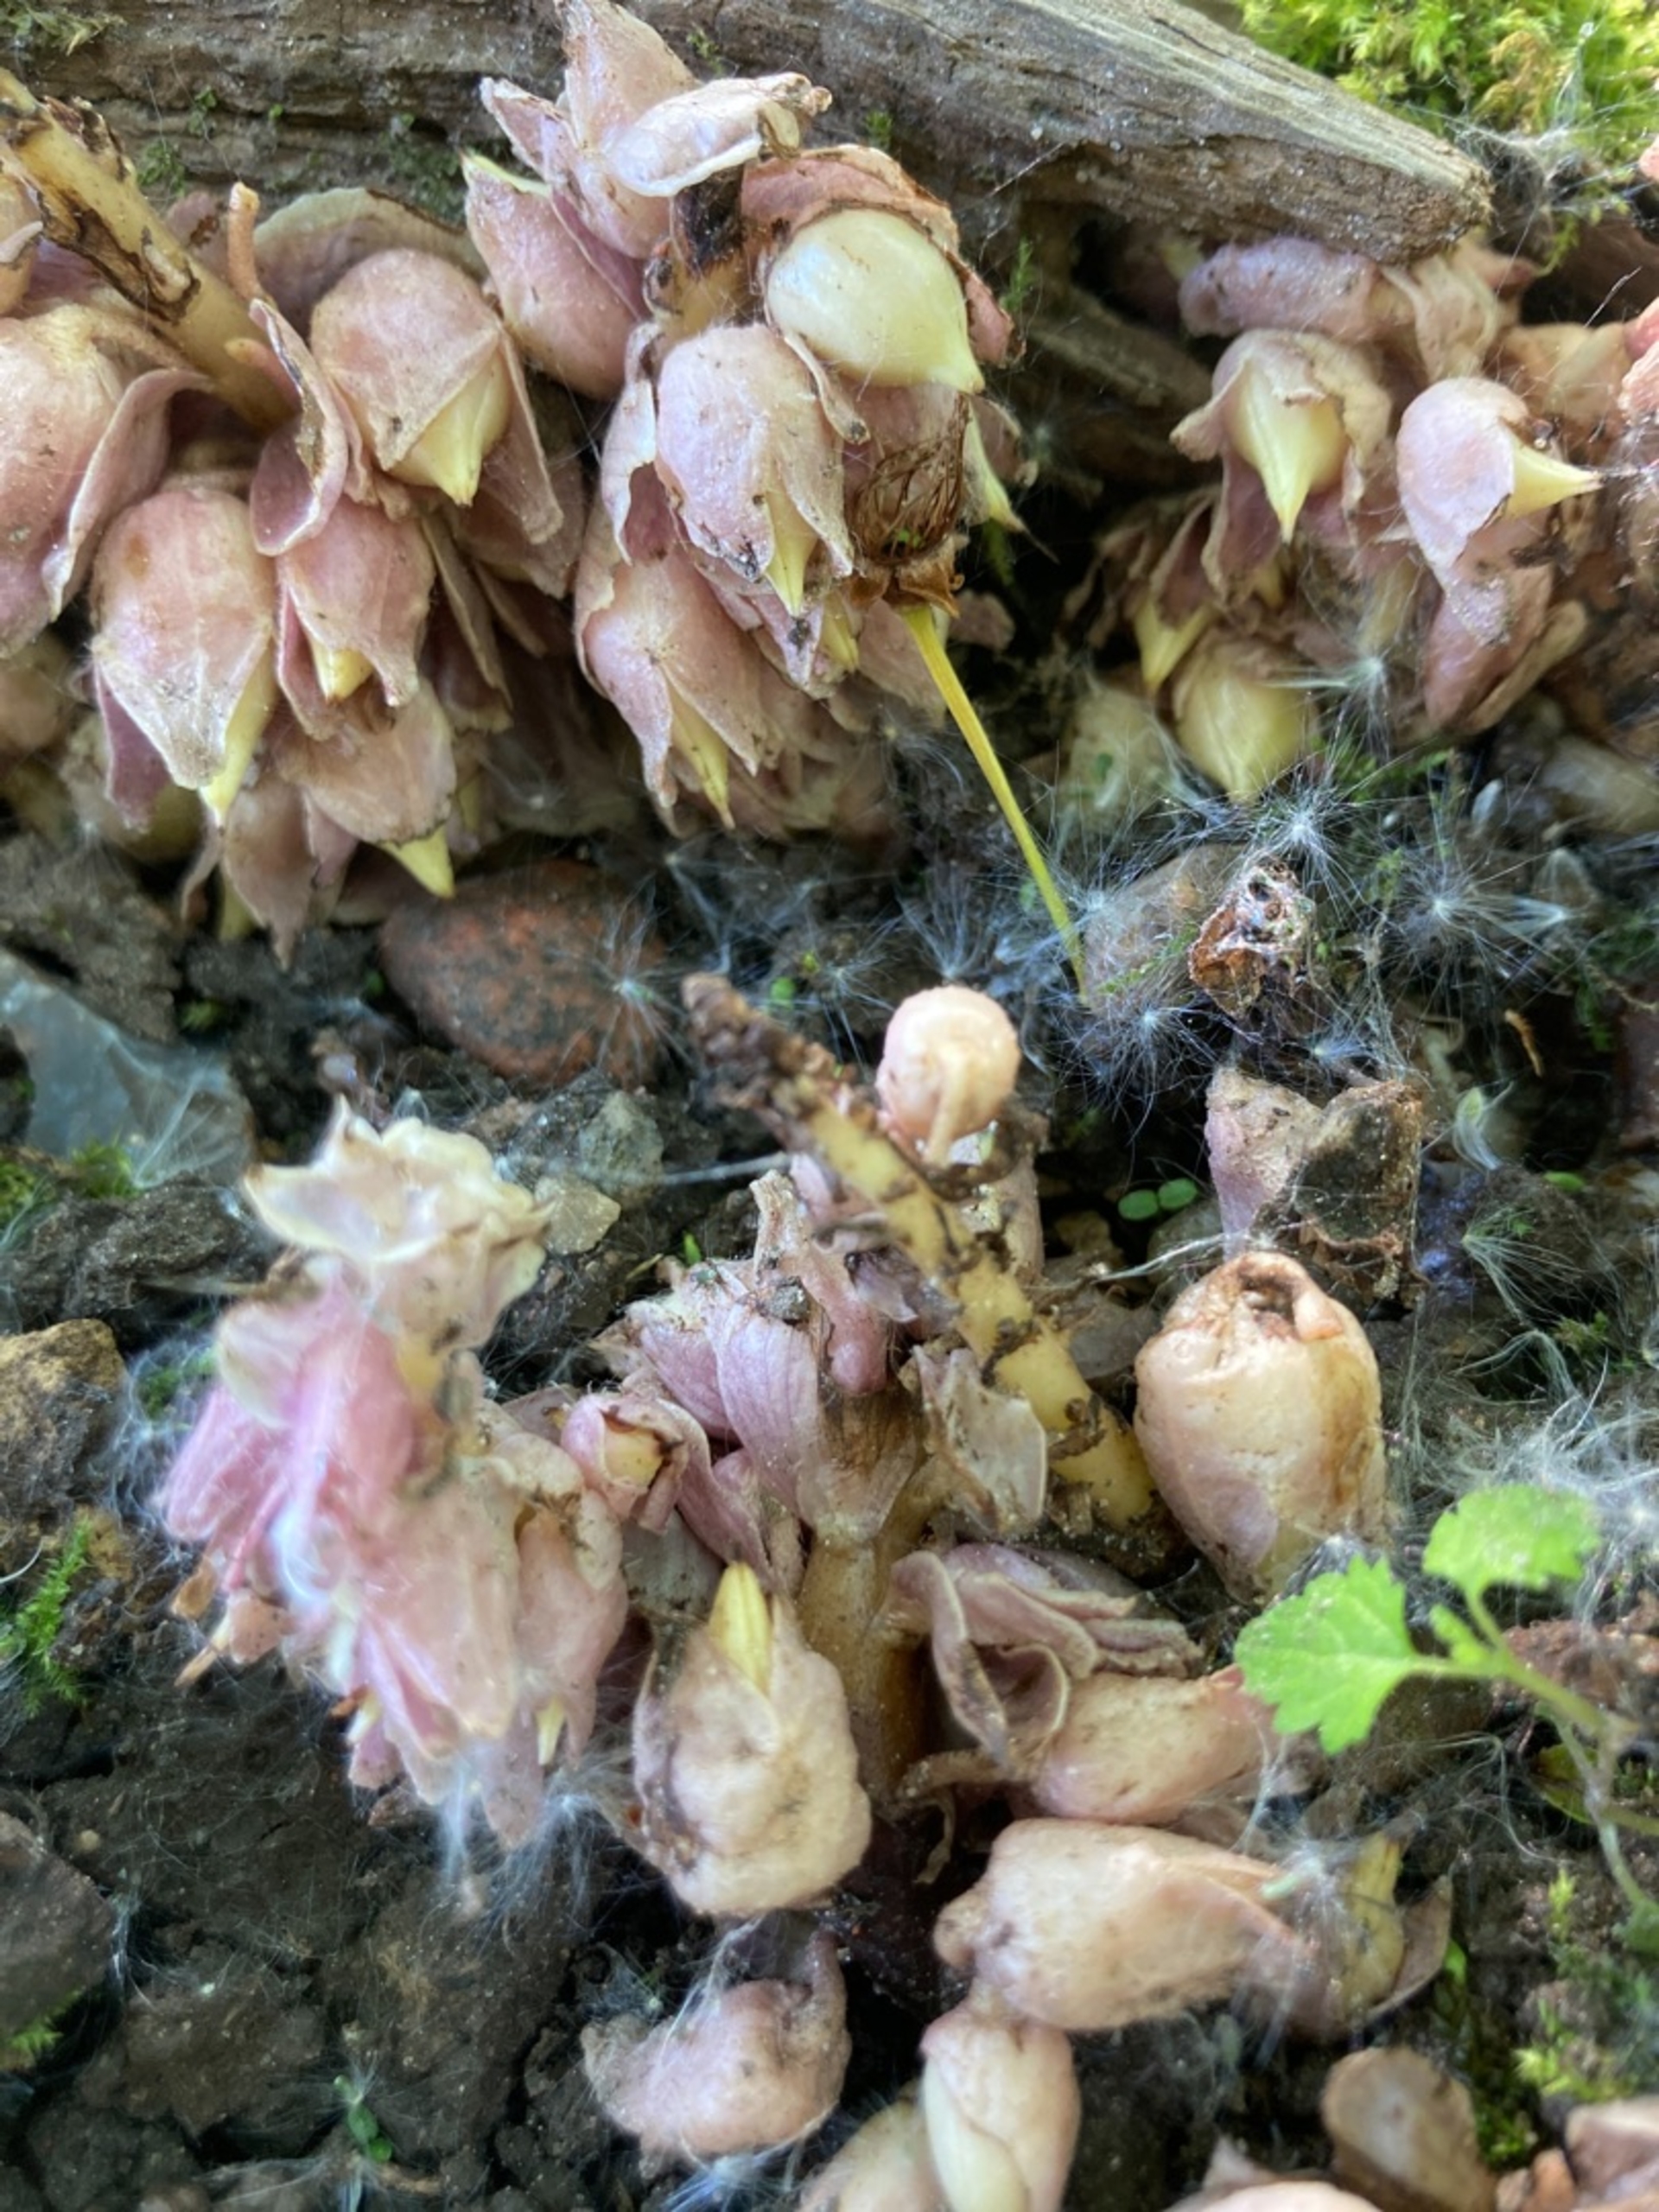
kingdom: Plantae
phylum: Tracheophyta
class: Magnoliopsida
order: Lamiales
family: Orobanchaceae
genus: Lathraea
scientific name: Lathraea squamaria
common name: Skælrod
